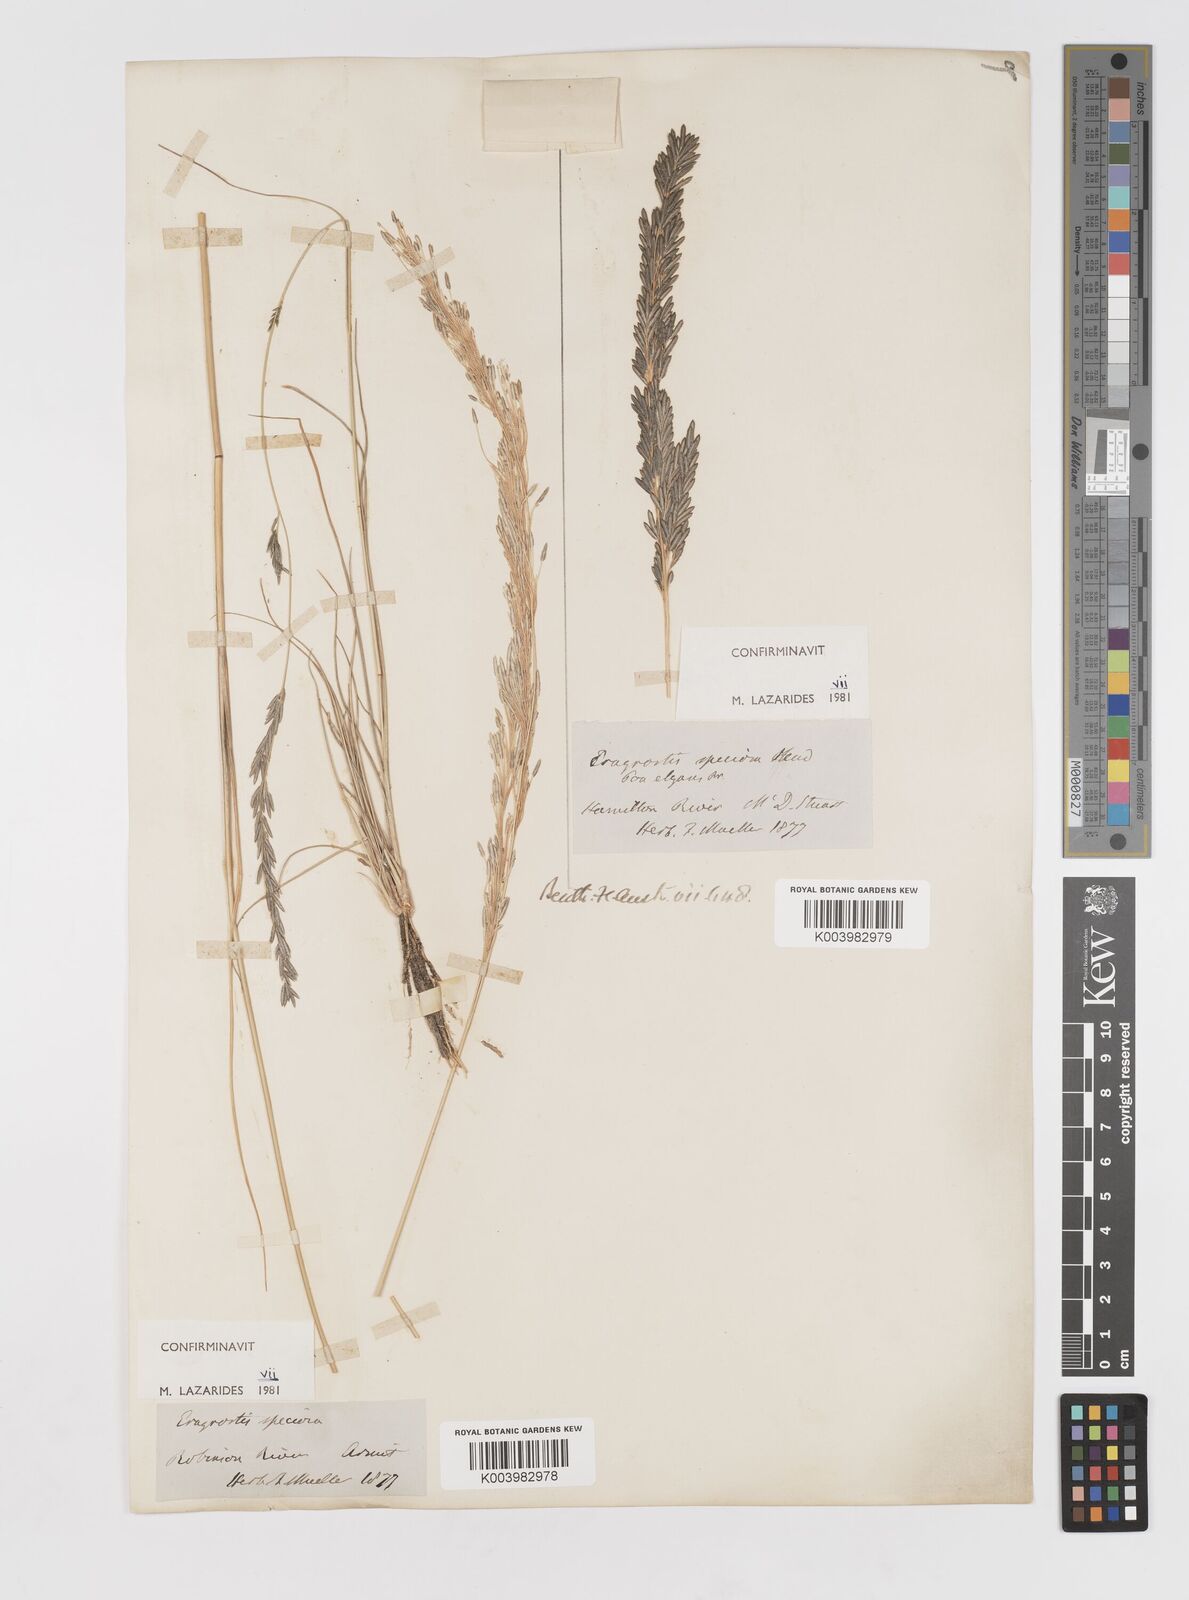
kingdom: Plantae
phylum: Tracheophyta
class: Liliopsida
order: Poales
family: Poaceae
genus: Eragrostis
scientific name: Eragrostis speciosa
